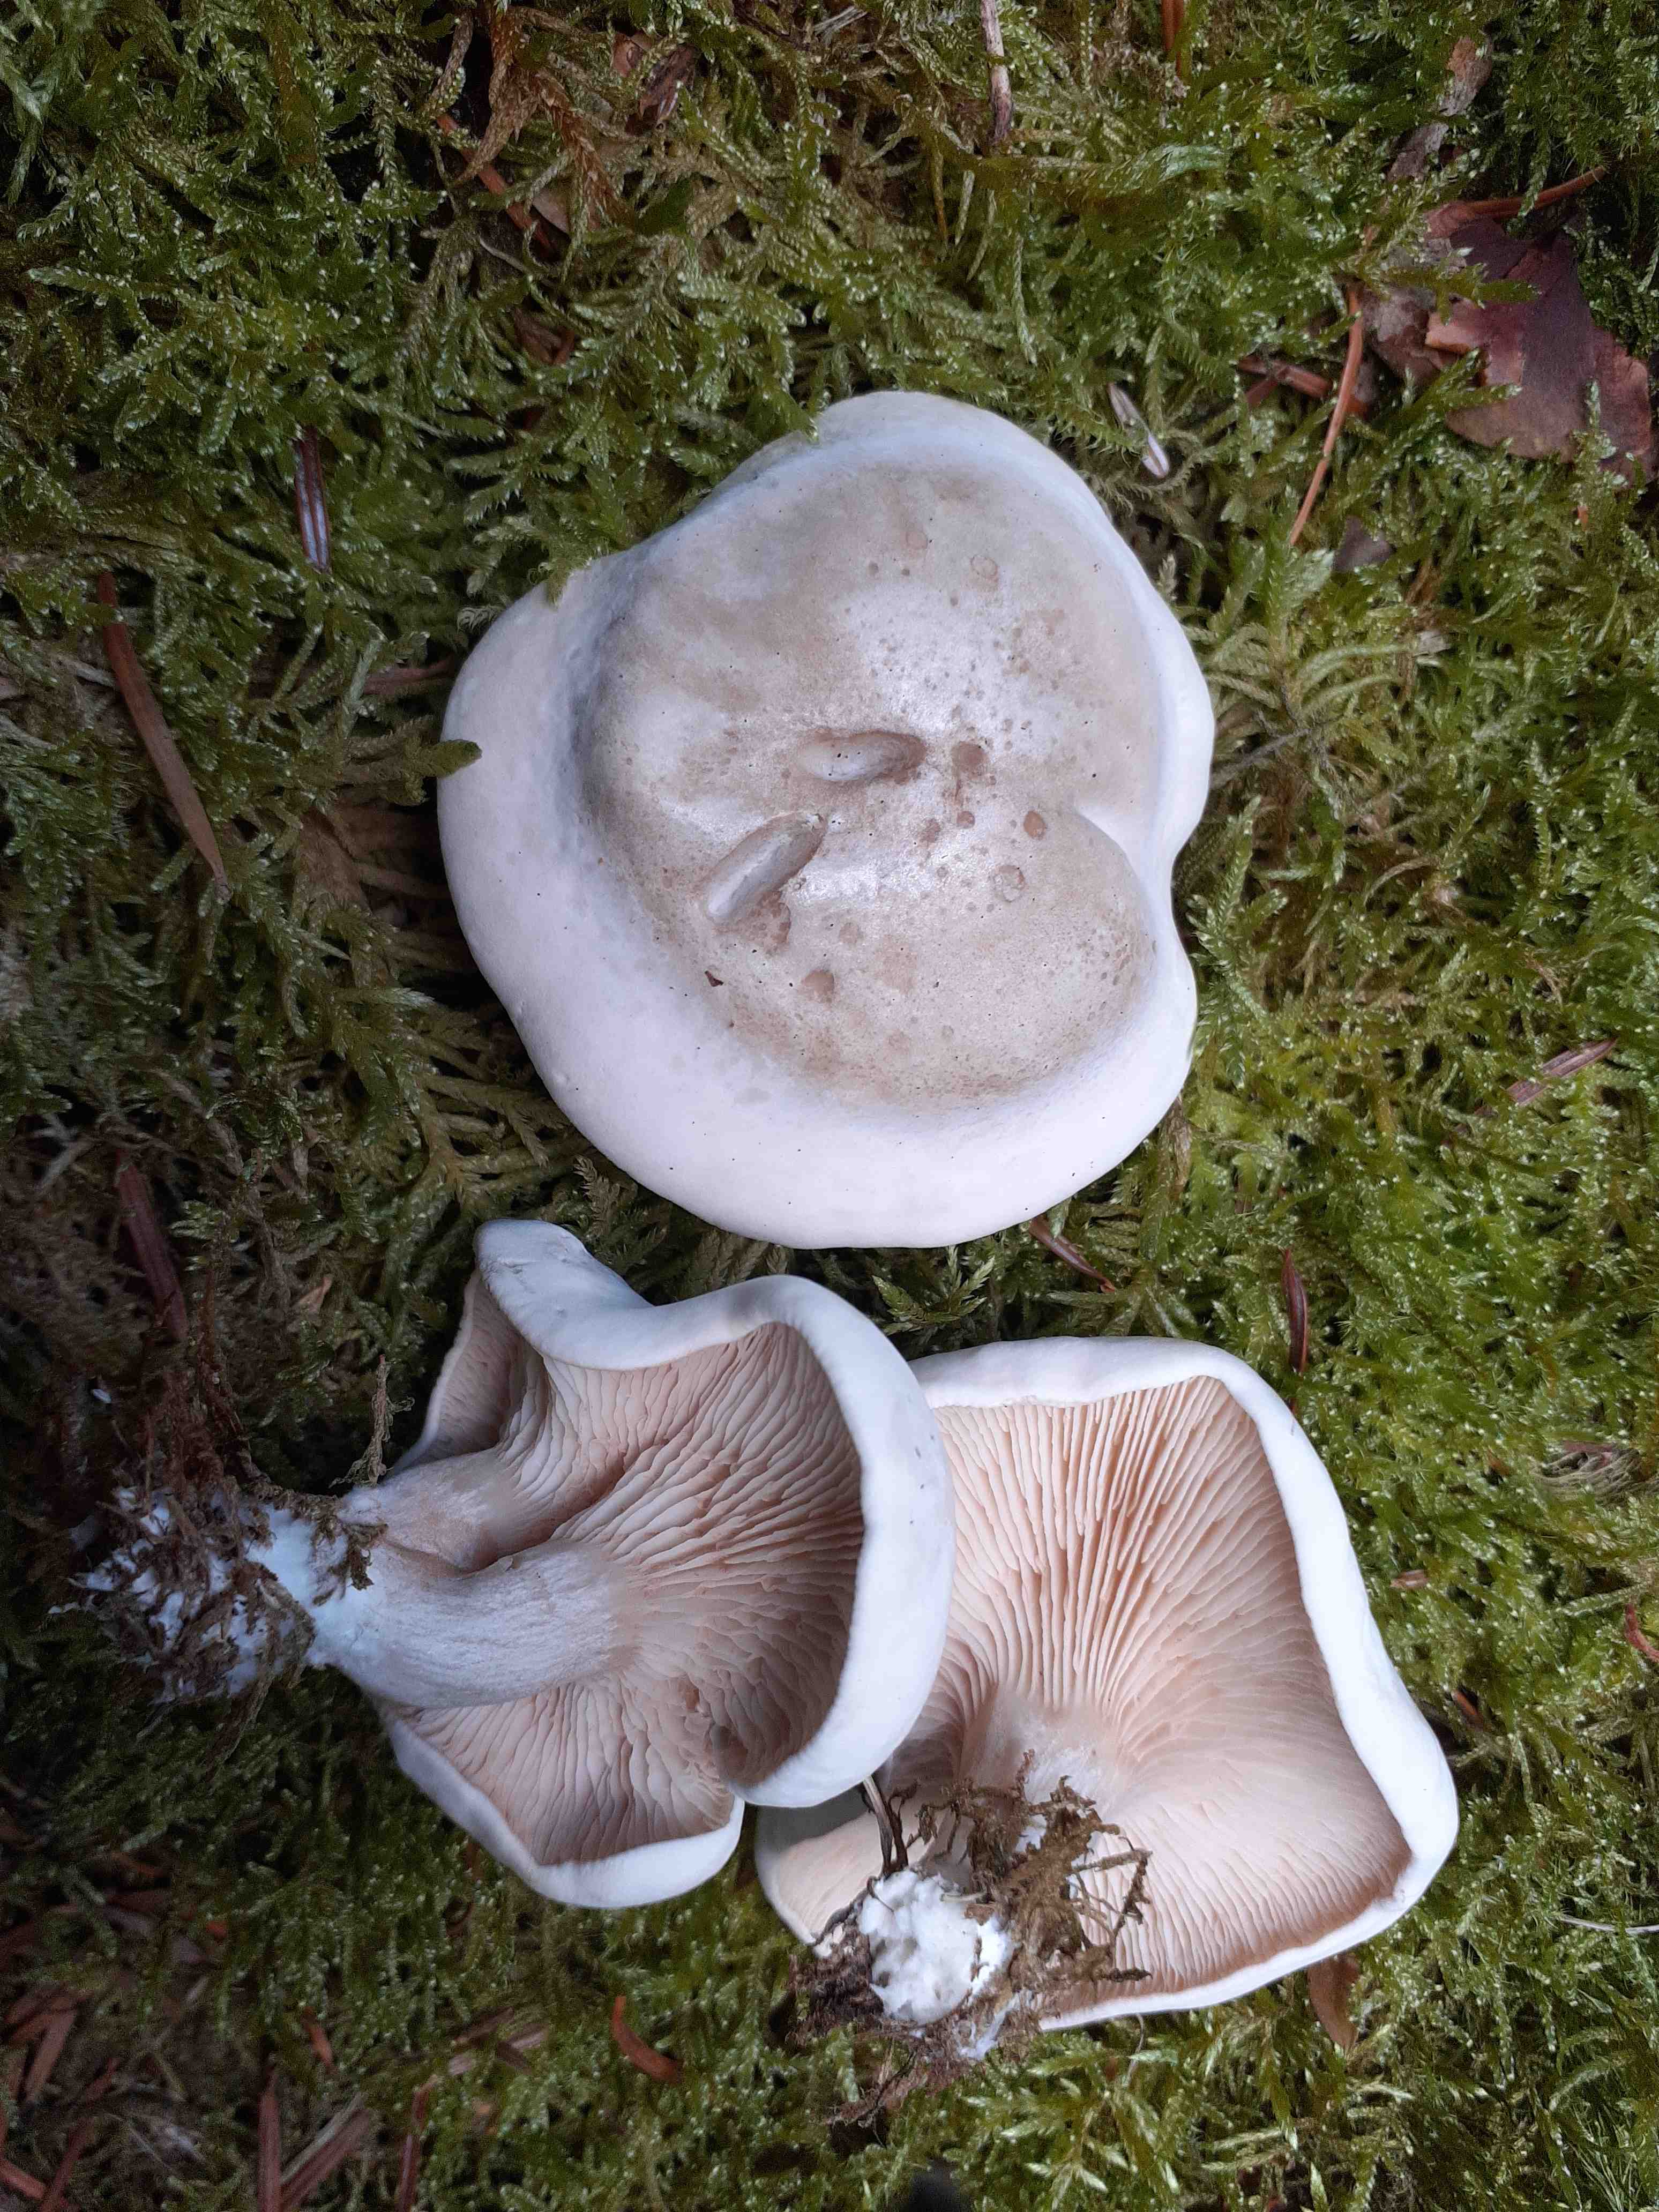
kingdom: Fungi
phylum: Basidiomycota
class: Agaricomycetes
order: Agaricales
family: Entolomataceae
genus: Clitopilus
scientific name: Clitopilus prunulus
